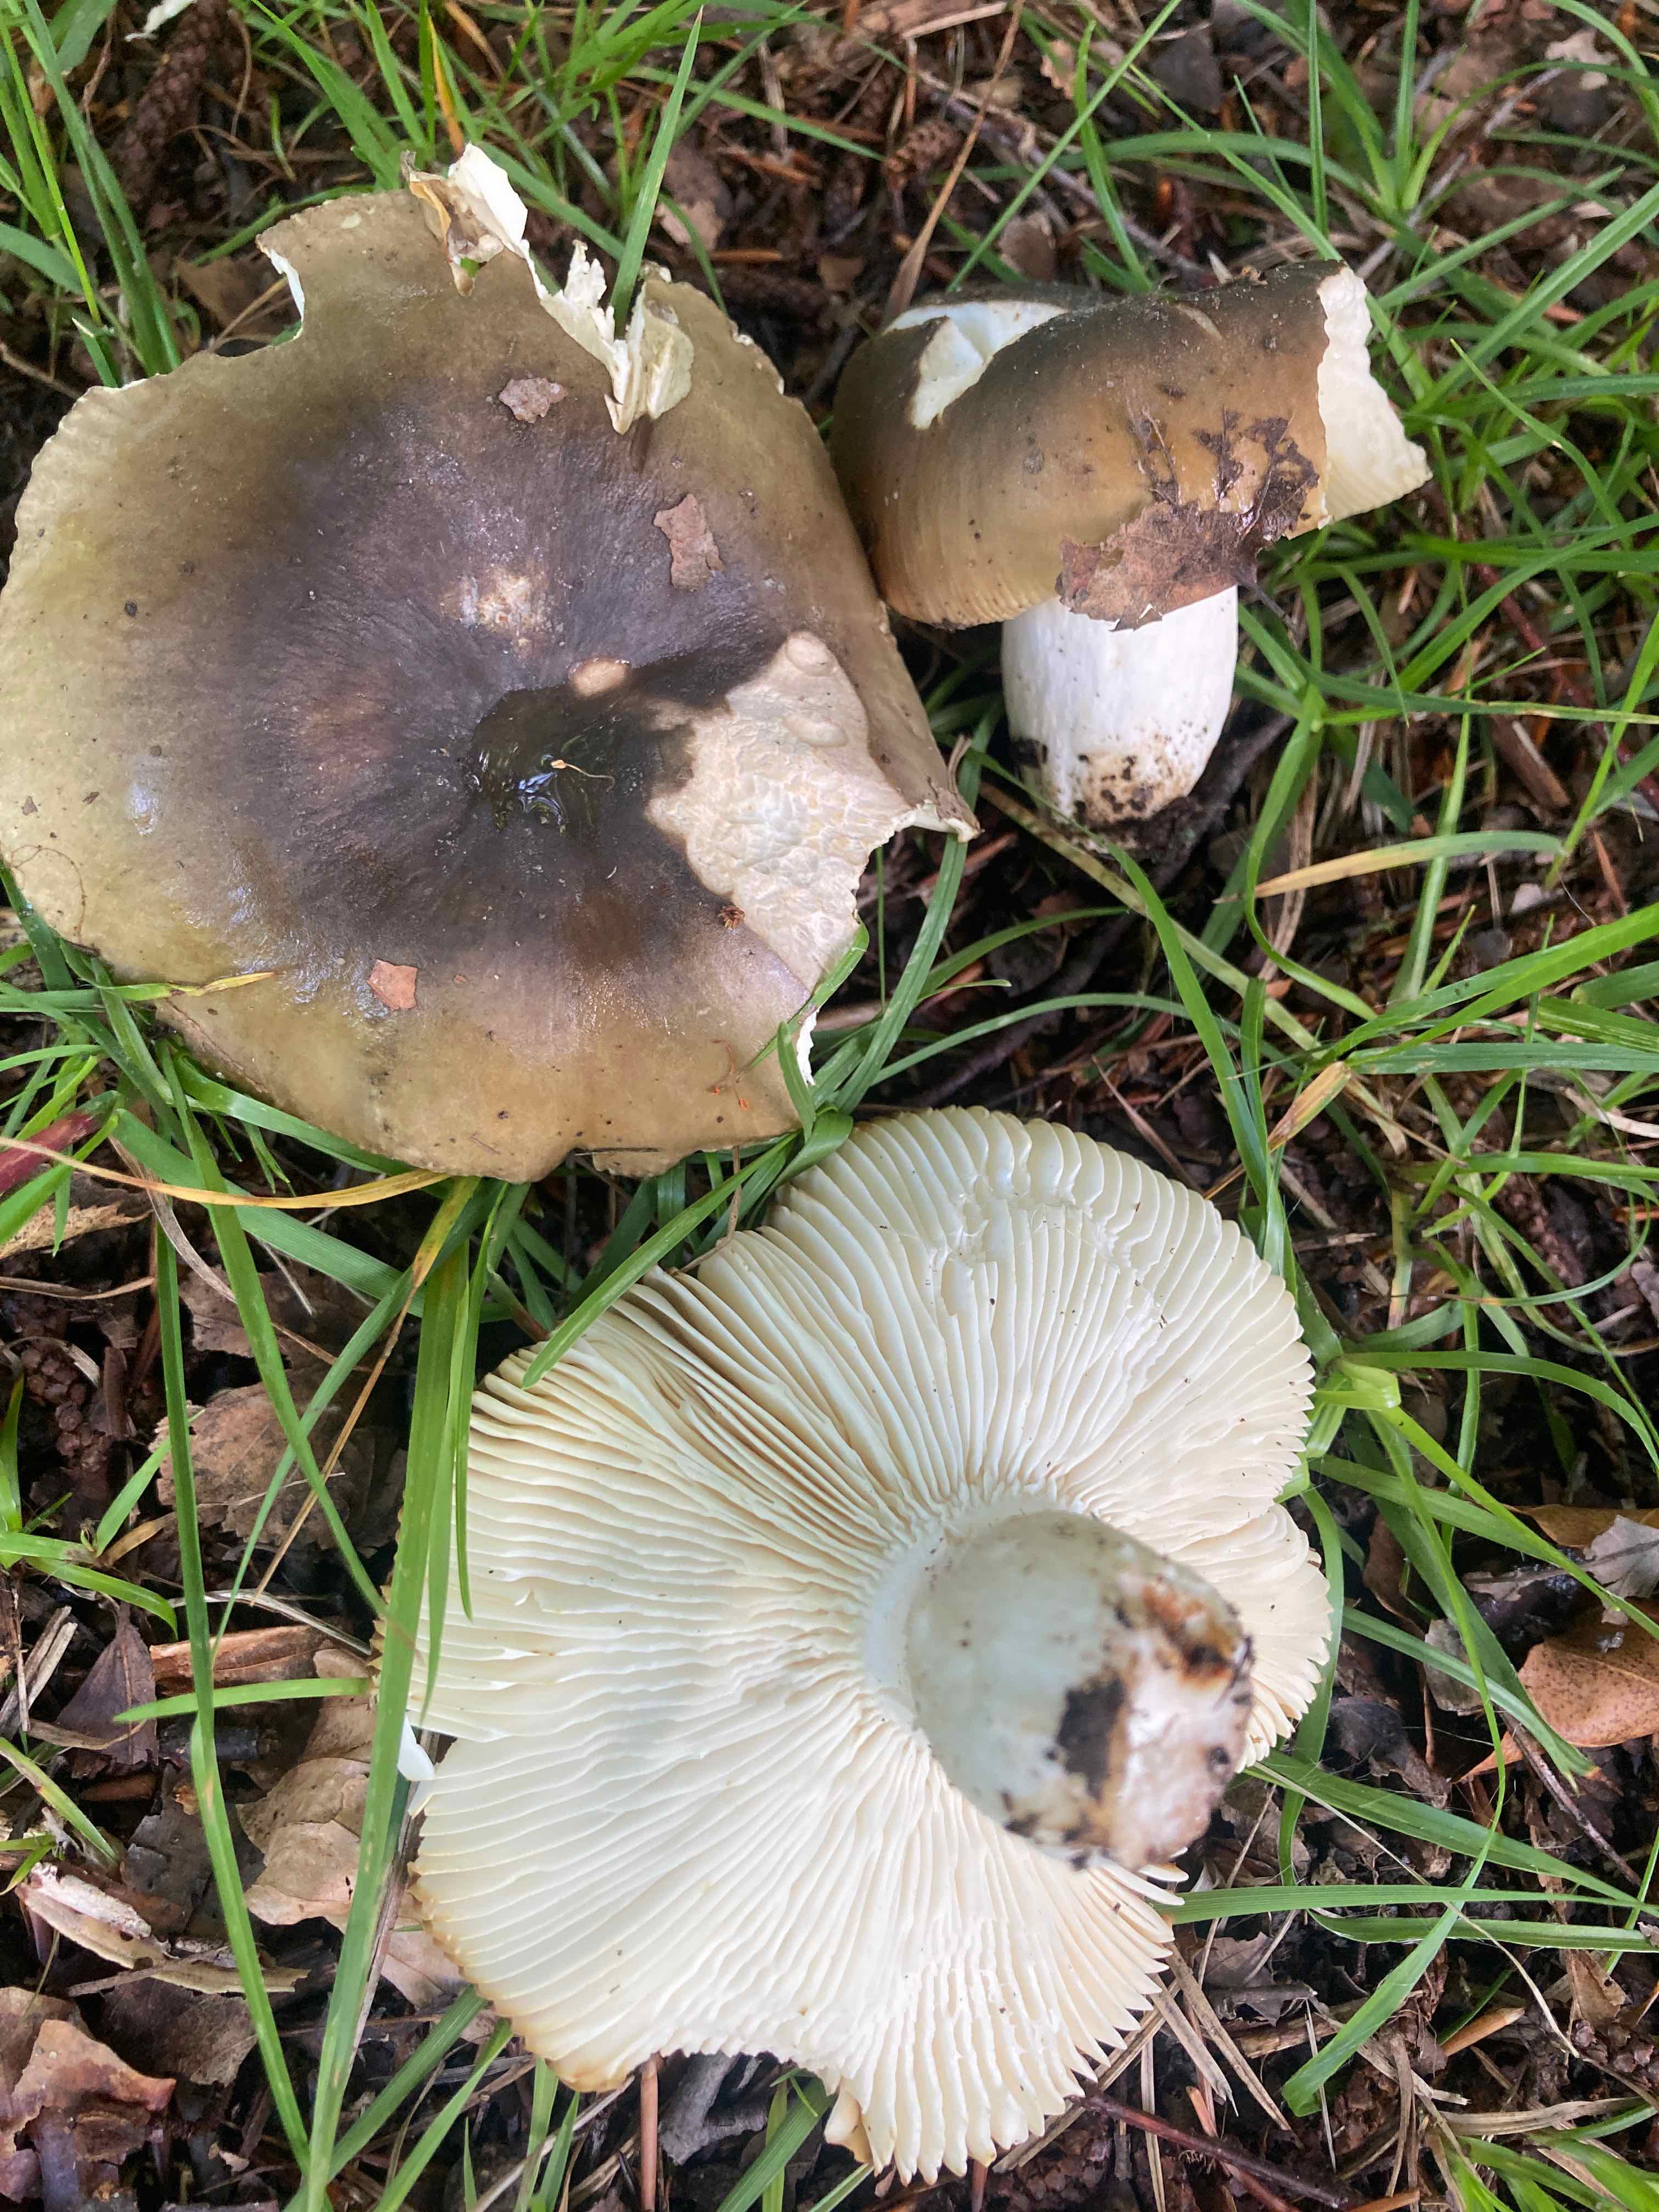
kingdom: Fungi
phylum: Basidiomycota
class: Agaricomycetes
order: Russulales
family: Russulaceae
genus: Russula
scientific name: Russula heterophylla
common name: gaffelbladet skørhat
